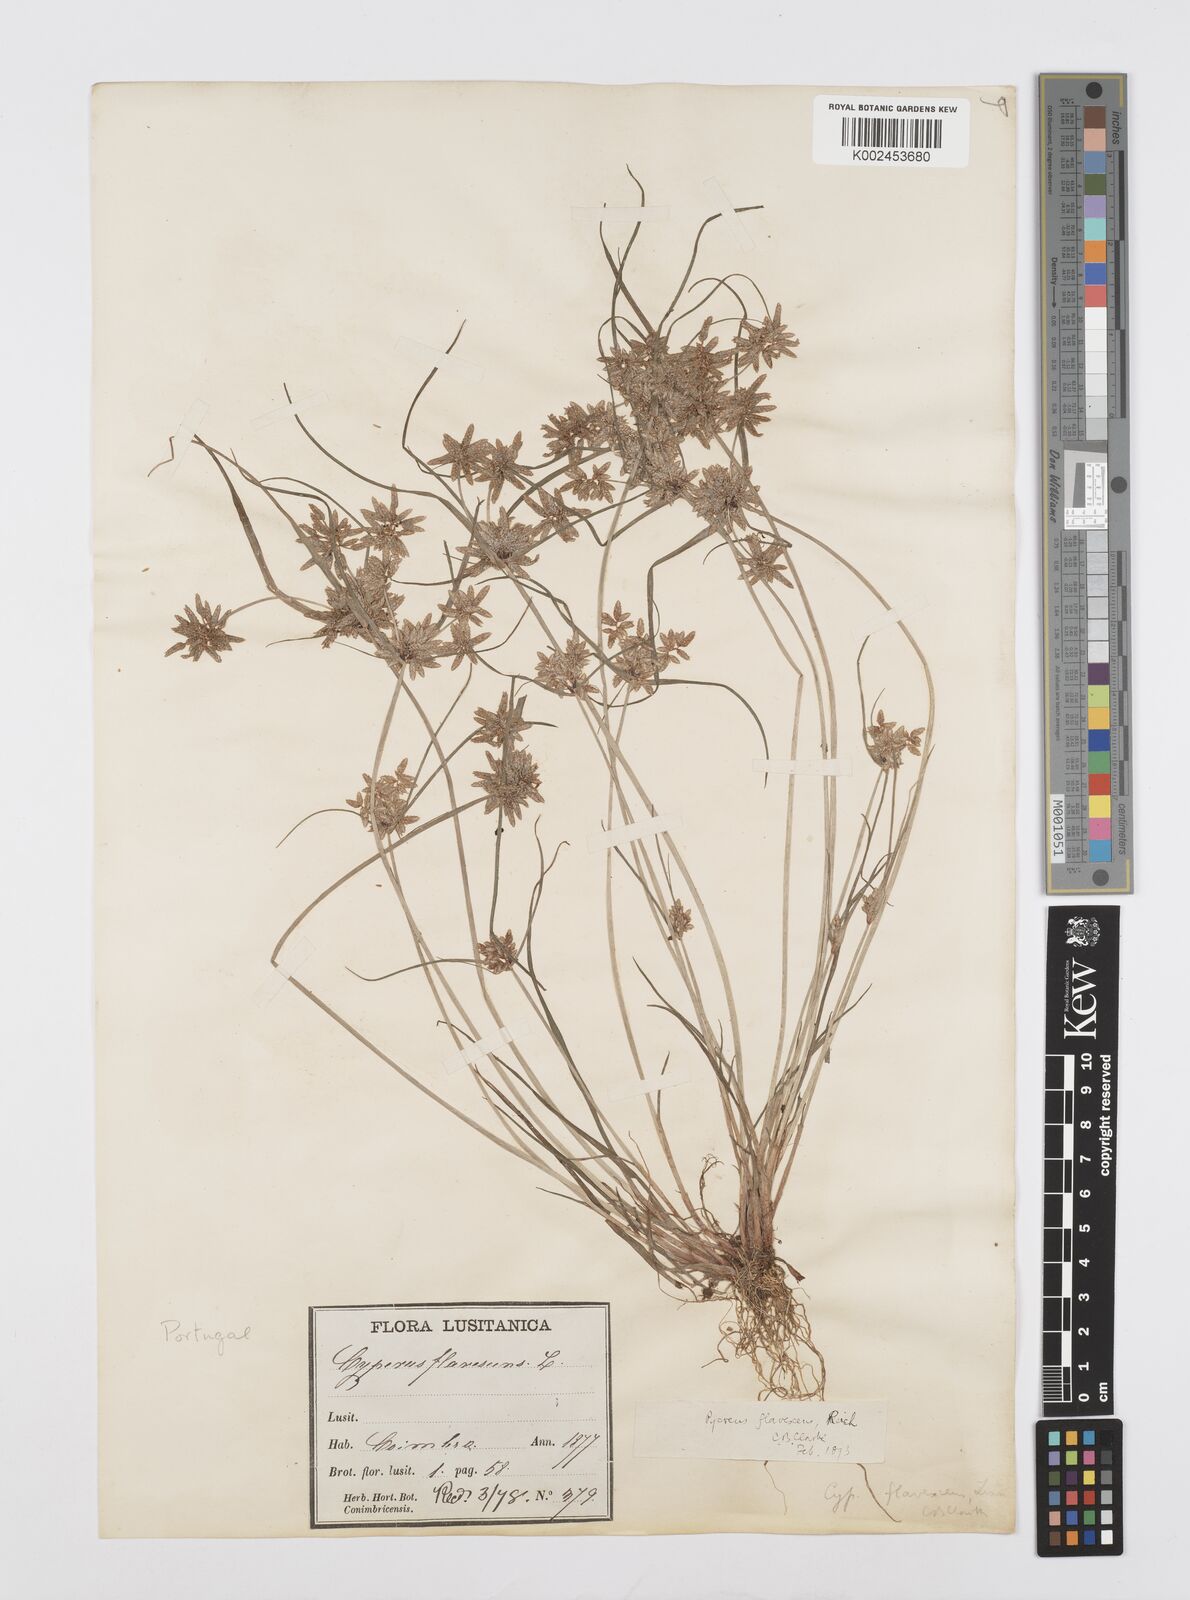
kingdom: Plantae
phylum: Tracheophyta
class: Liliopsida
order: Poales
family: Cyperaceae
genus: Cyperus
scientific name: Cyperus flavescens
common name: Yellow galingale
